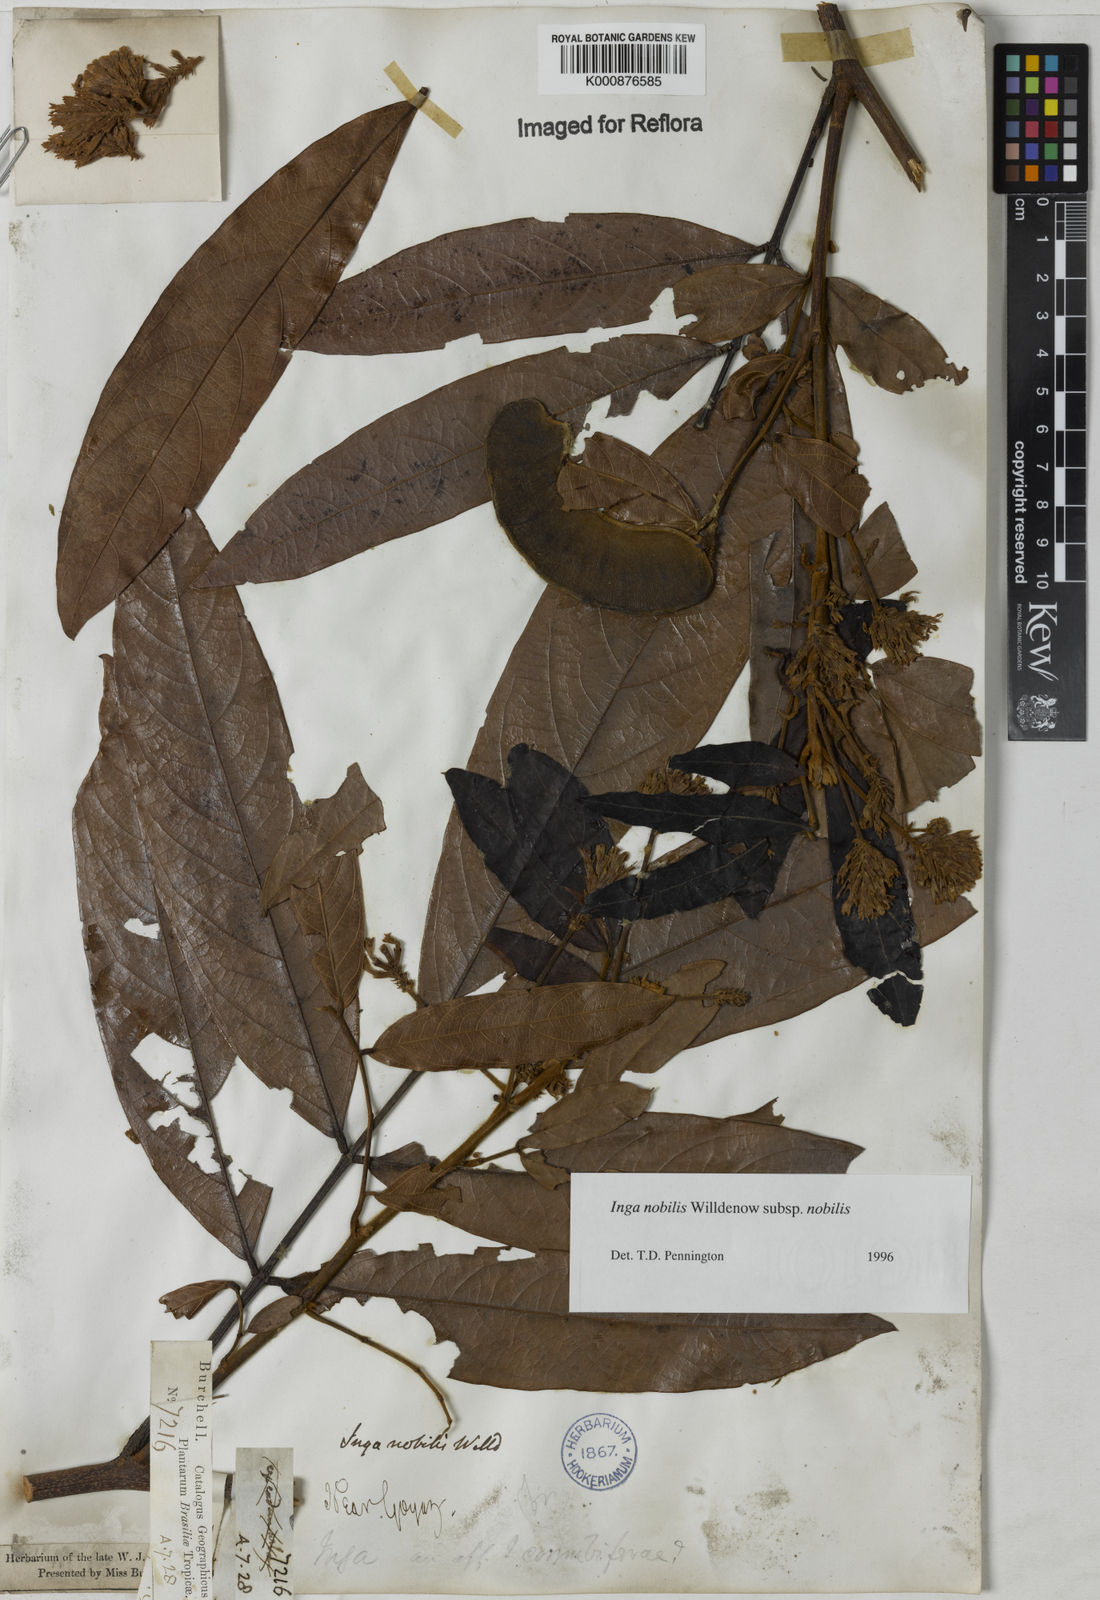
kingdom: Plantae
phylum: Tracheophyta
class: Magnoliopsida
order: Fabales
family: Fabaceae
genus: Inga
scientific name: Inga nobilis
